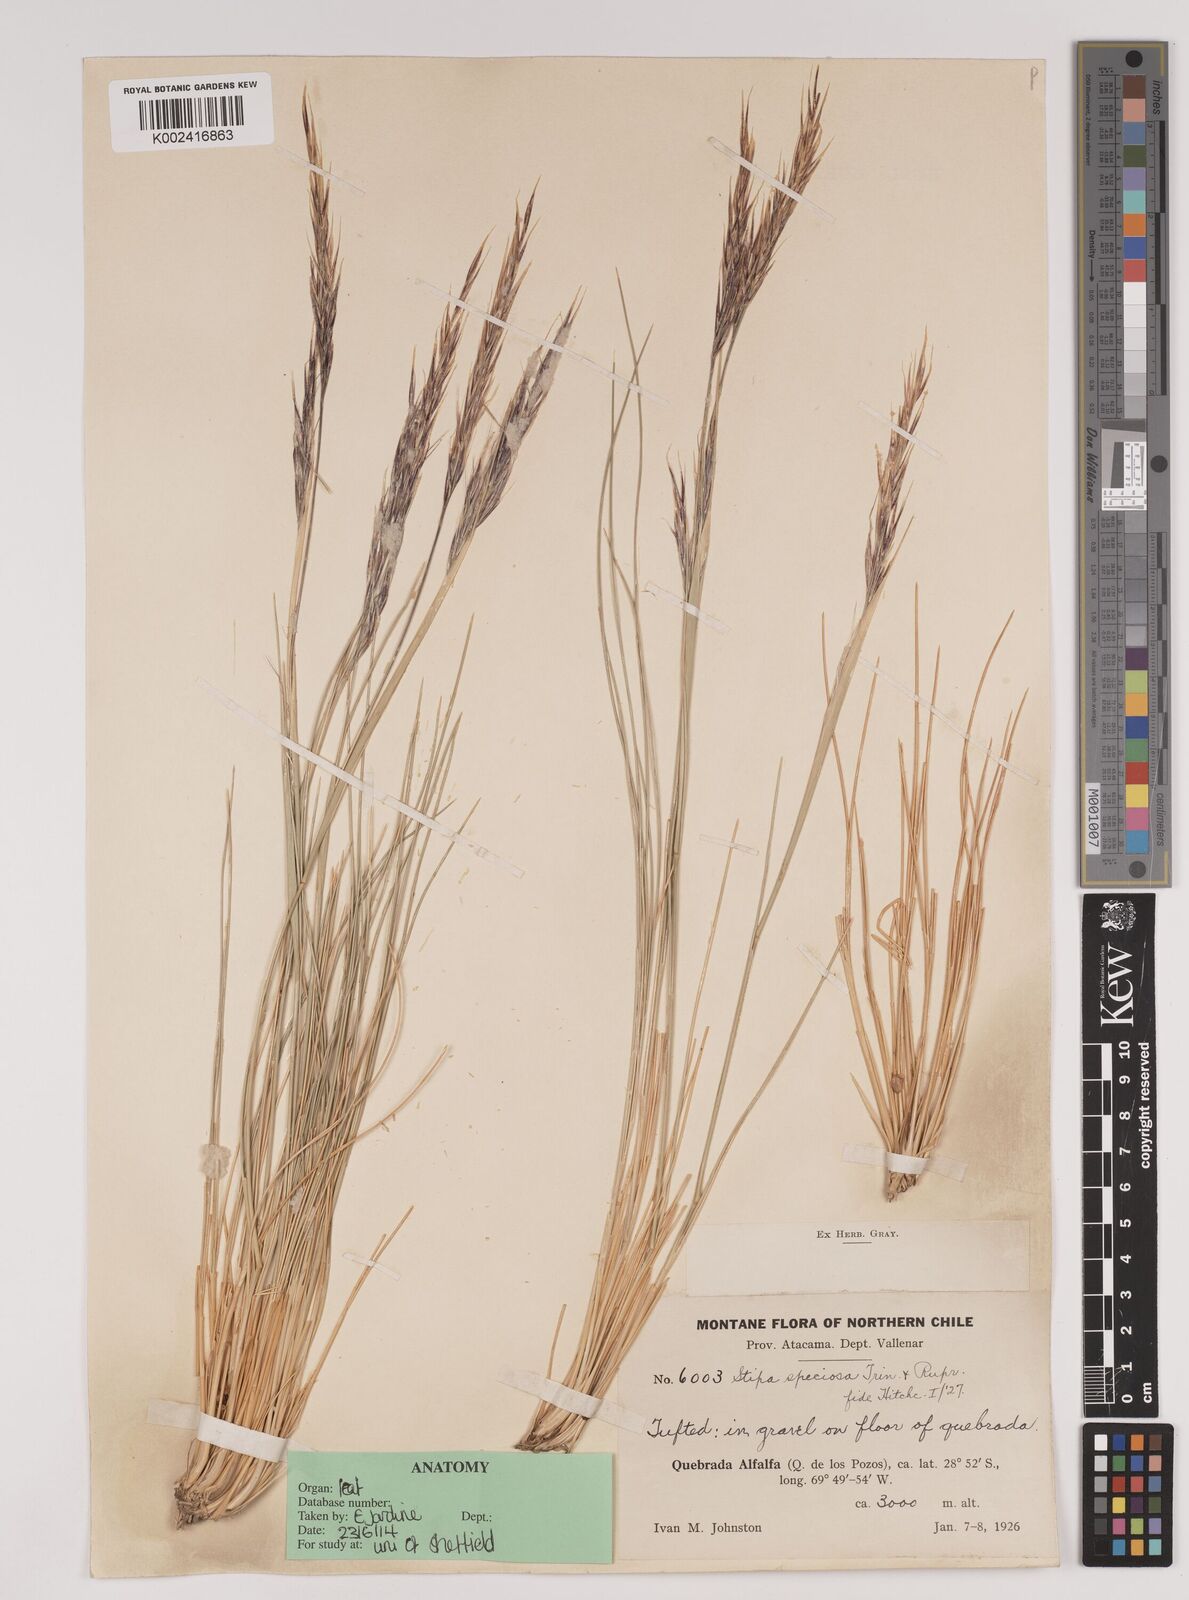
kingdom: Plantae
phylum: Tracheophyta
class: Liliopsida
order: Poales
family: Poaceae
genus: Pappostipa
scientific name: Pappostipa speciosa
